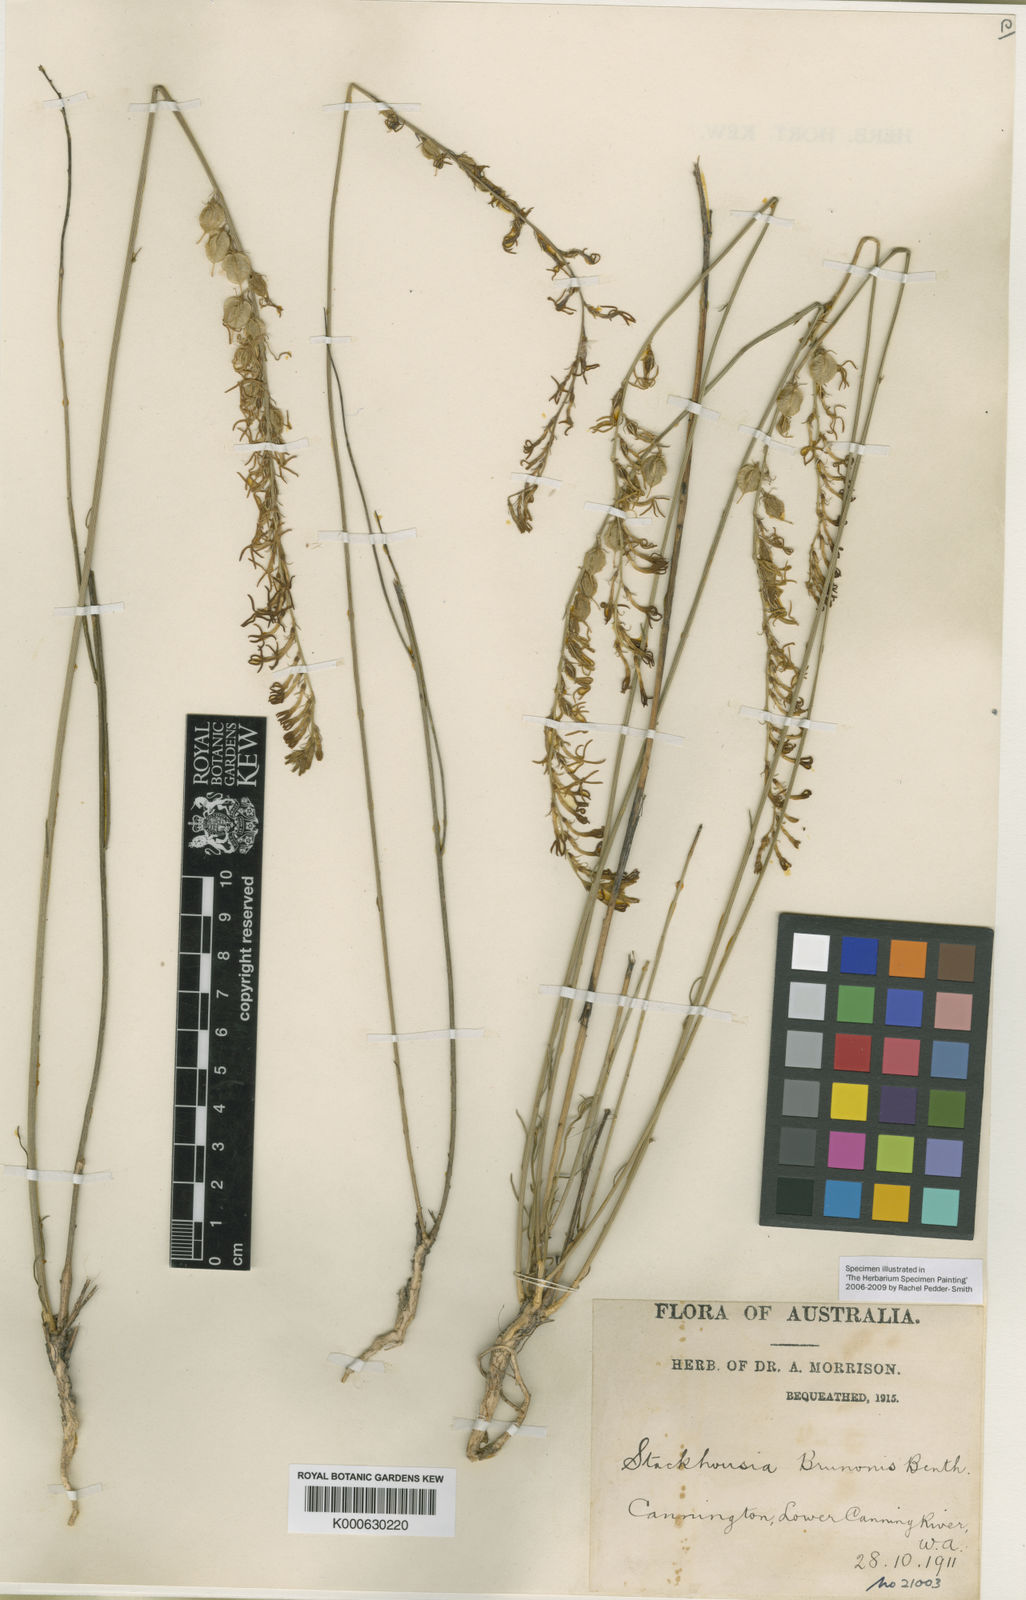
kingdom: Plantae
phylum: Tracheophyta
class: Magnoliopsida
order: Celastrales
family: Celastraceae
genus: Tripterococcus
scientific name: Tripterococcus brunonis
